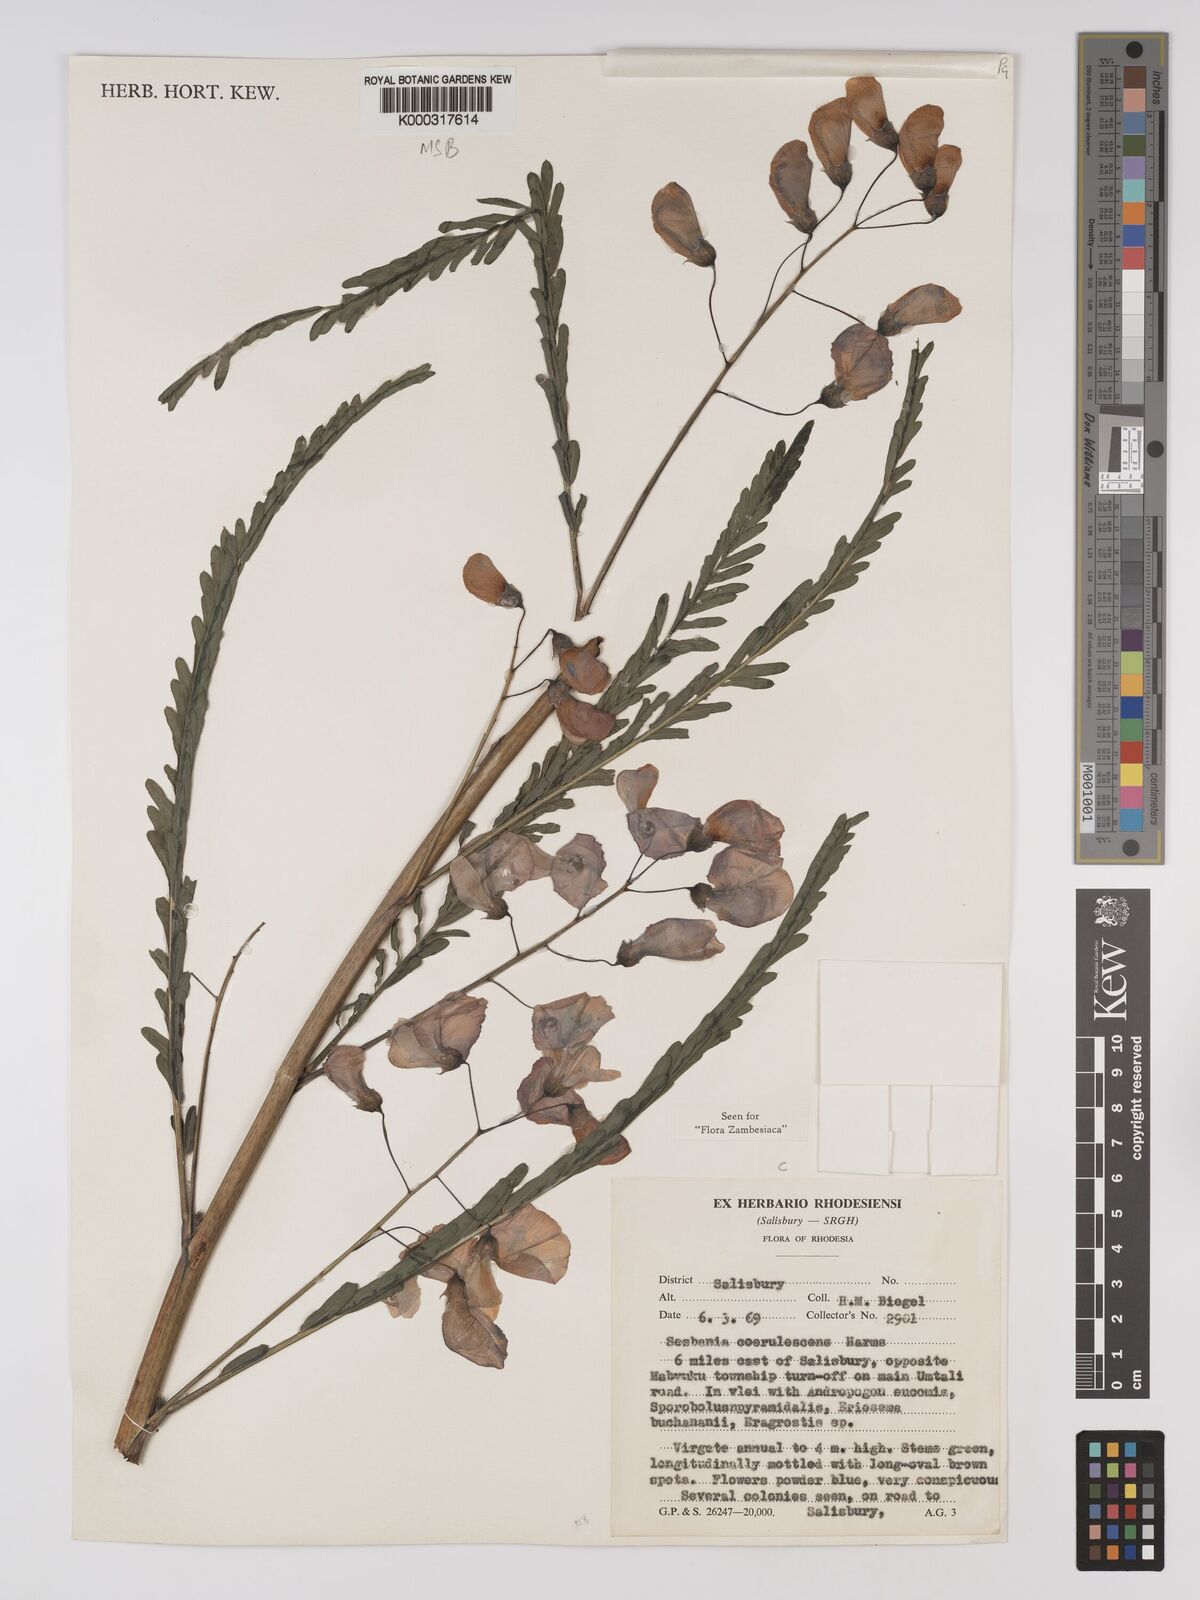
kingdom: Plantae
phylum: Tracheophyta
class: Magnoliopsida
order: Fabales
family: Fabaceae
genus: Sesbania
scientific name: Sesbania coerulescens
